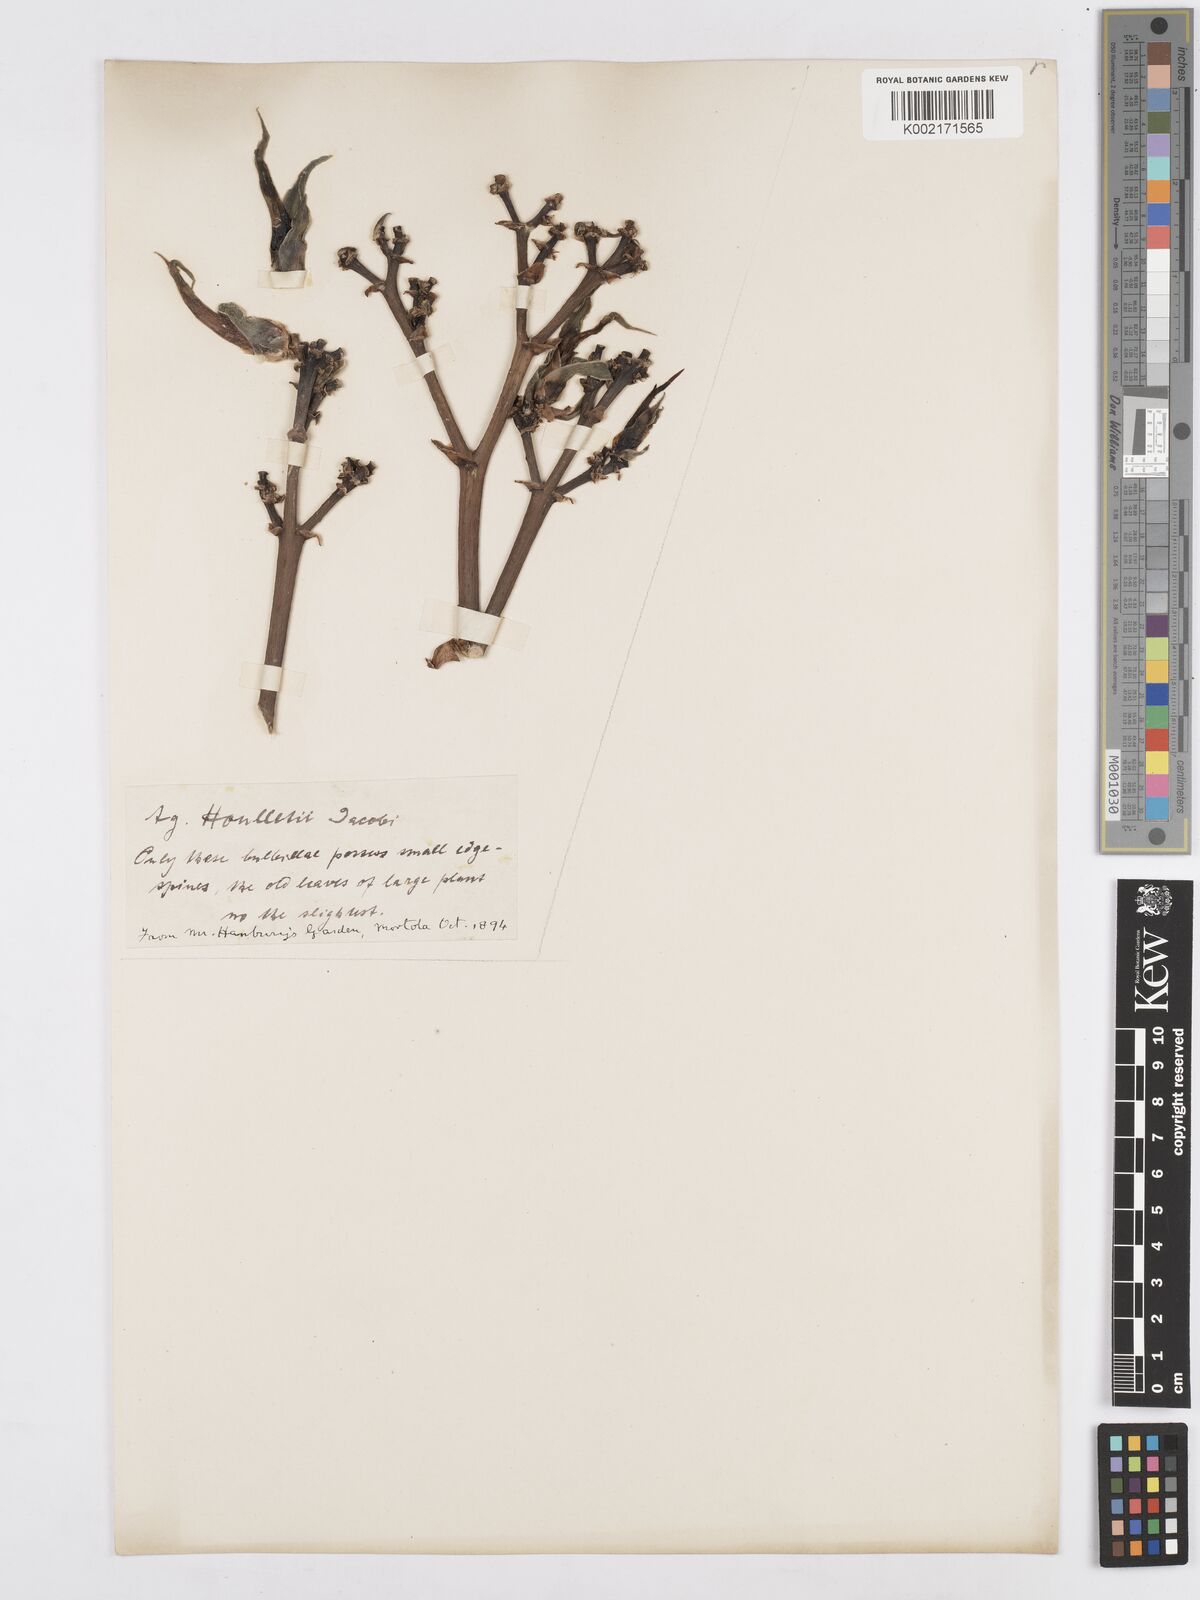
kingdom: Plantae
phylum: Tracheophyta
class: Liliopsida
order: Asparagales
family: Asparagaceae
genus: Agave
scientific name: Agave angustifolia
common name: Mescal agave
